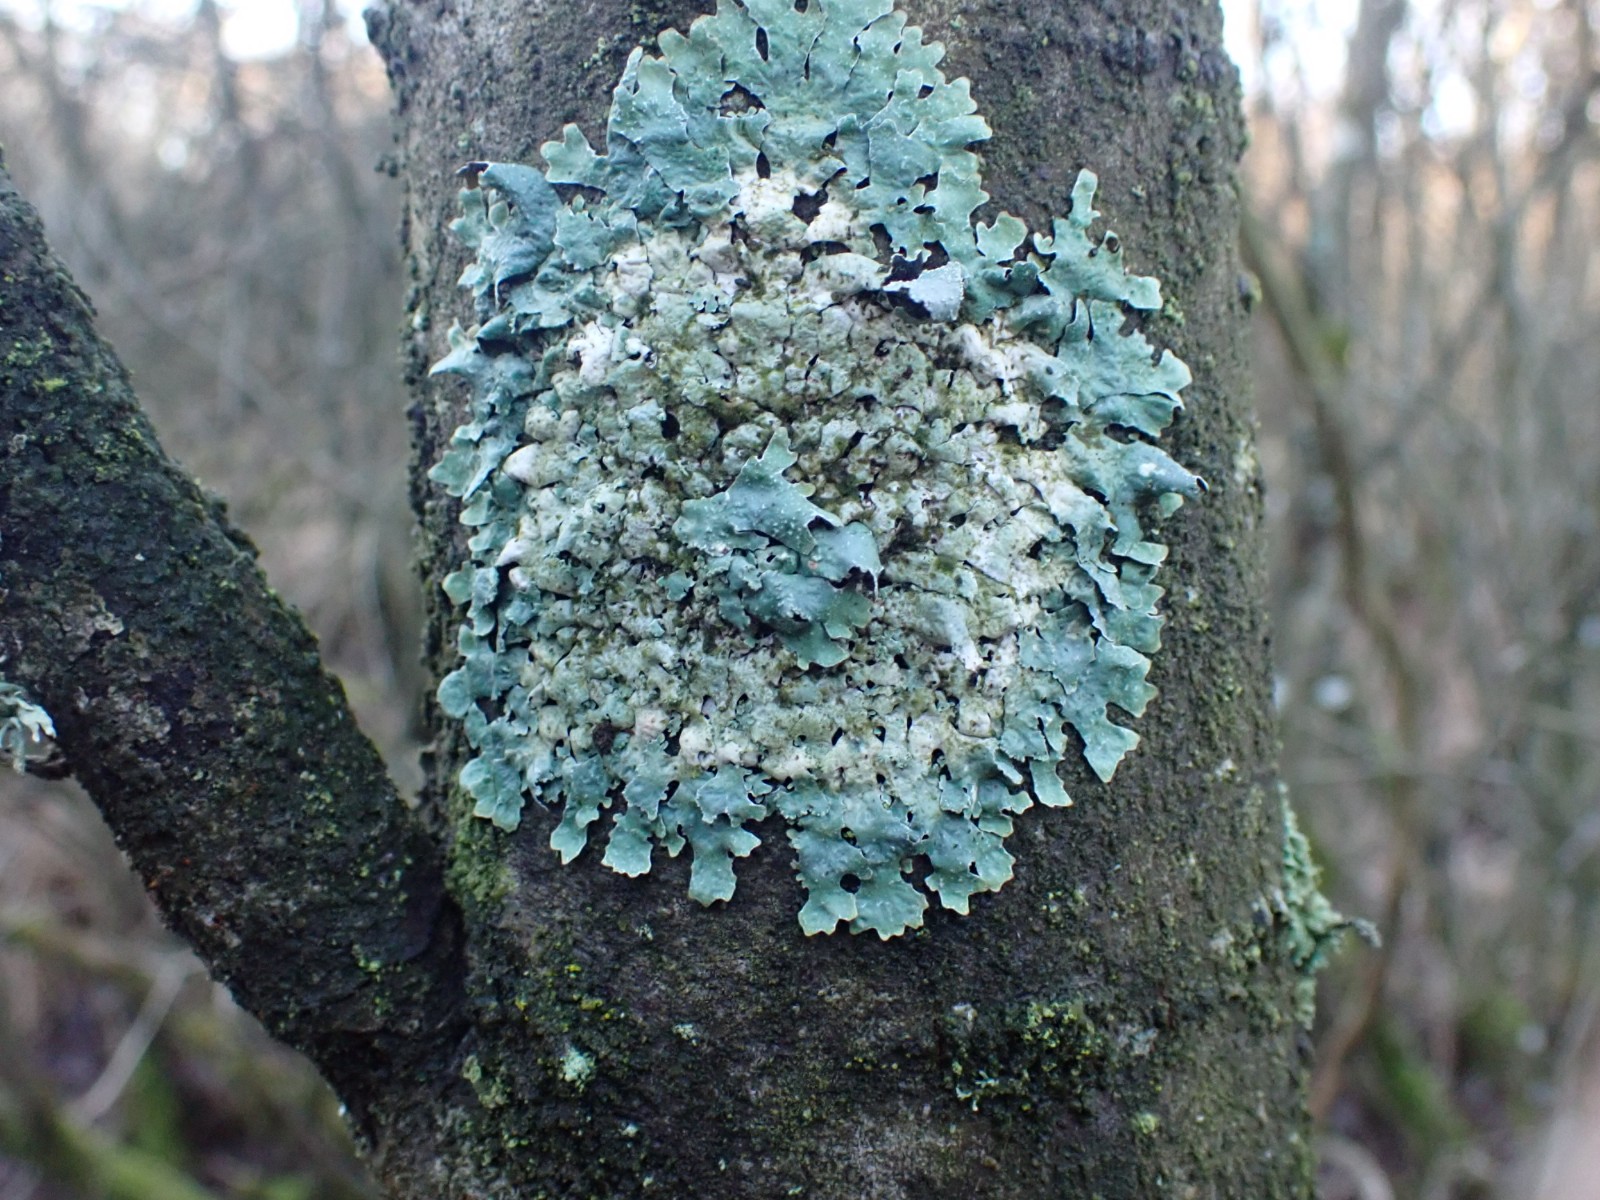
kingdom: Fungi
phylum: Ascomycota
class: Lecanoromycetes
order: Lecanorales
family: Parmeliaceae
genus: Parmelia
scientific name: Parmelia sulcata
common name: rynket skållav
